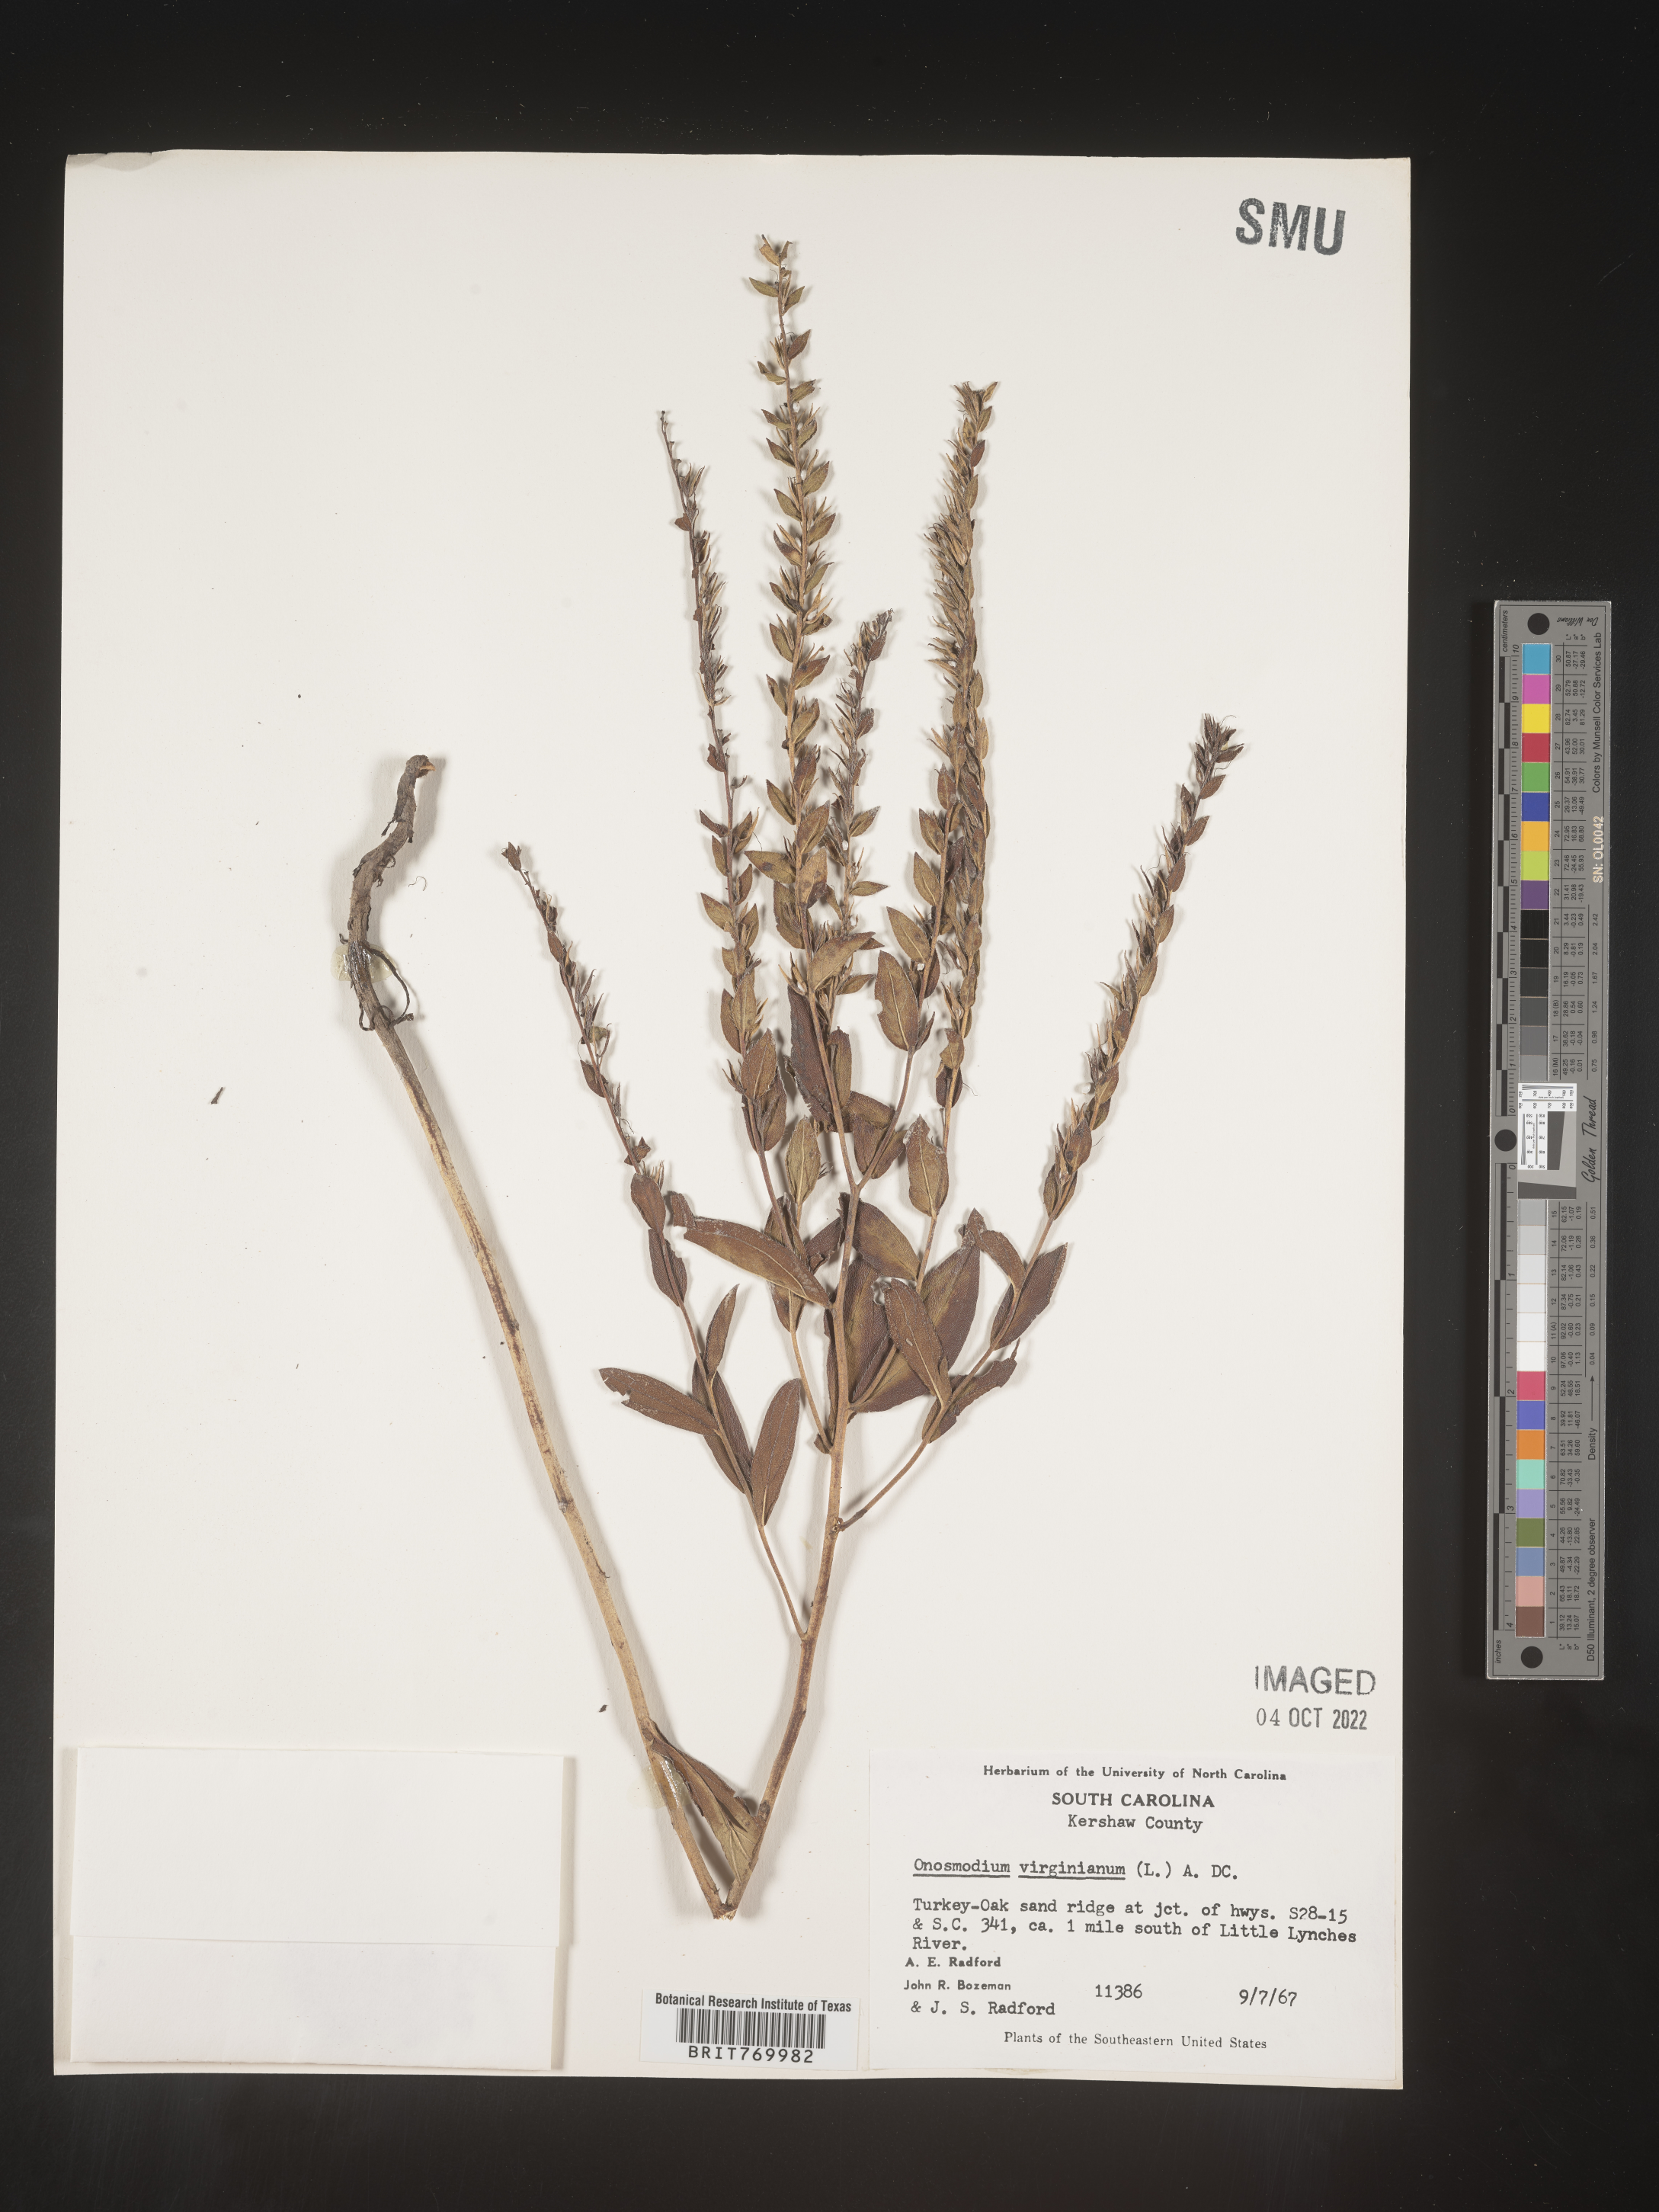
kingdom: Plantae
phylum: Tracheophyta
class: Magnoliopsida
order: Boraginales
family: Boraginaceae
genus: Lithospermum
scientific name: Lithospermum virginianum
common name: Eastern false gromwell
